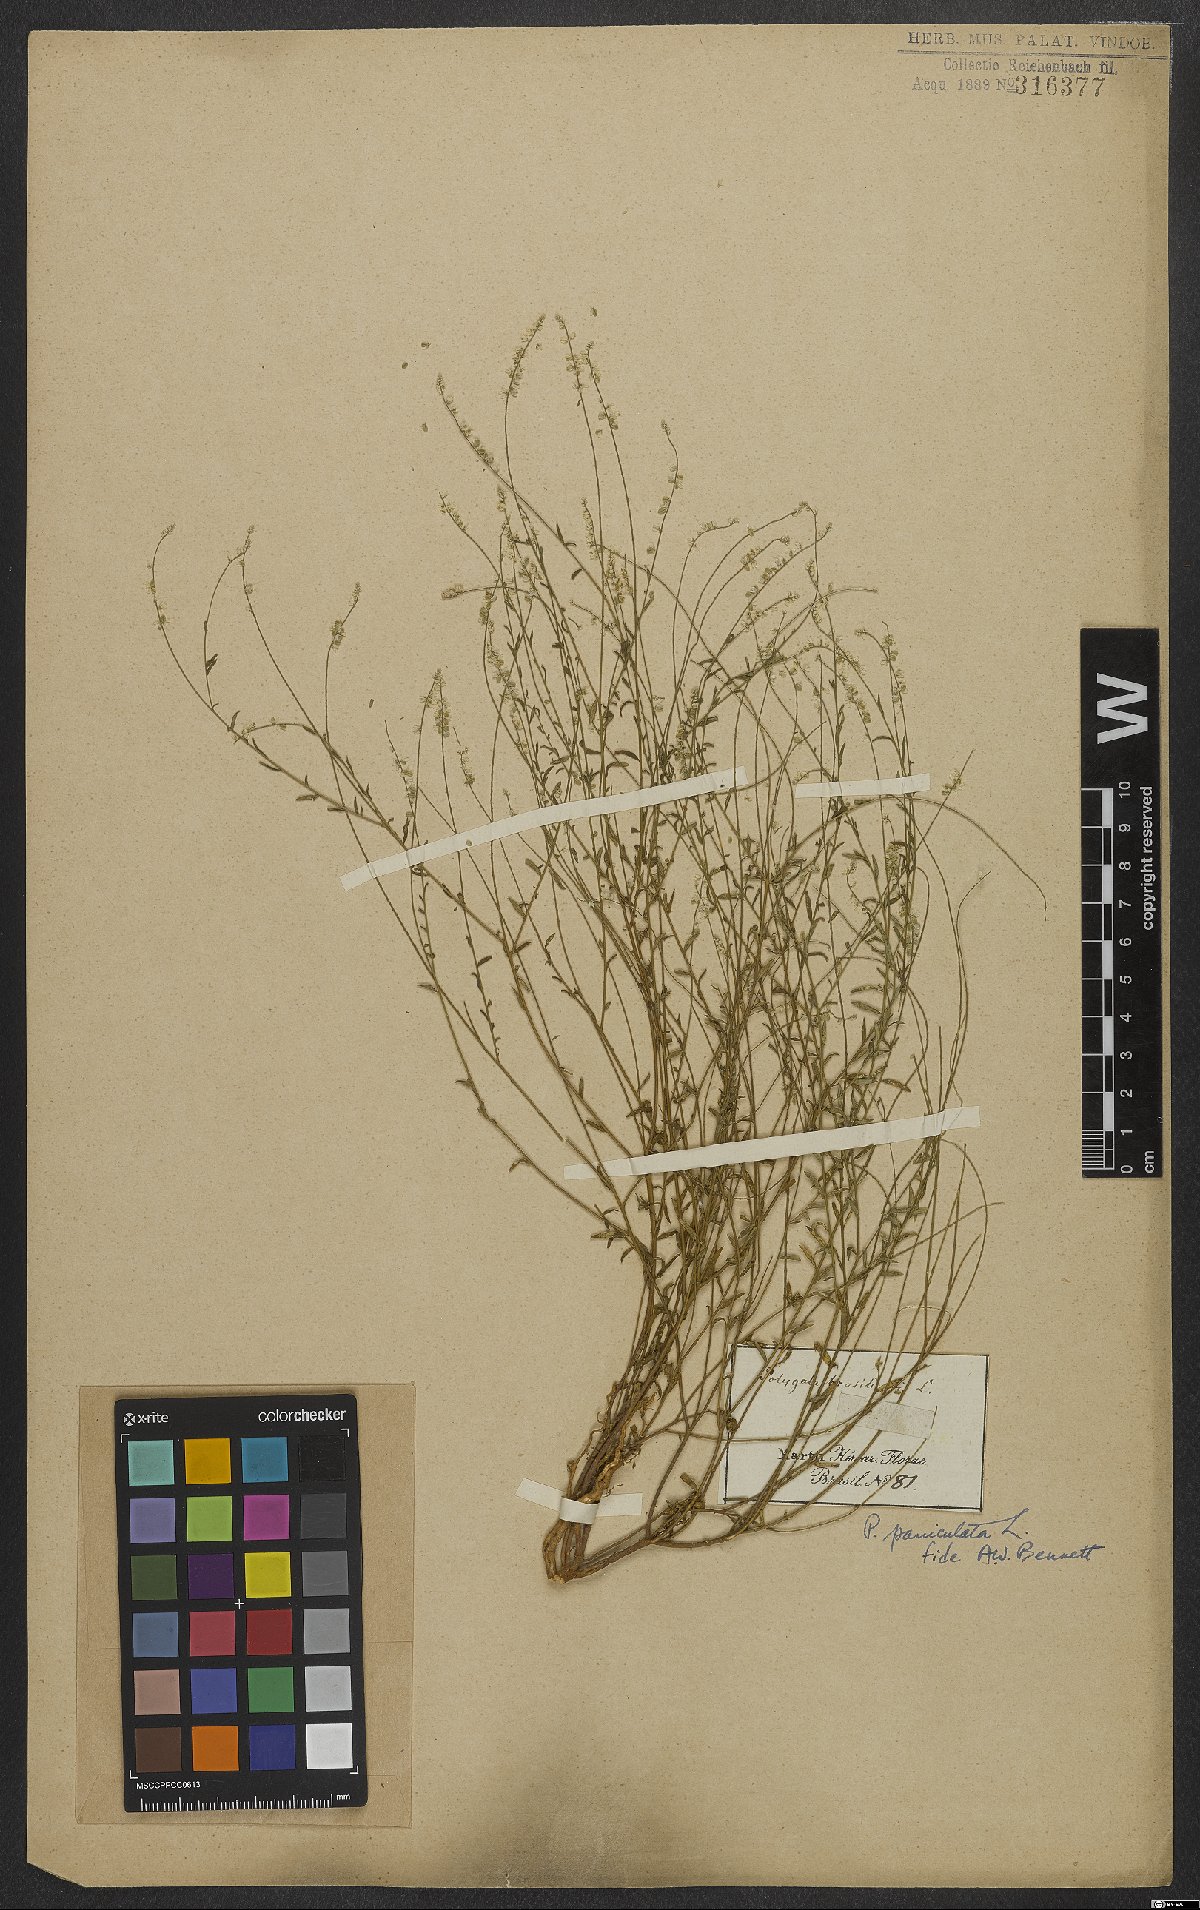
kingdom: Plantae
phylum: Tracheophyta
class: Magnoliopsida
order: Fabales
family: Polygalaceae
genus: Polygala
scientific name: Polygala exilis
